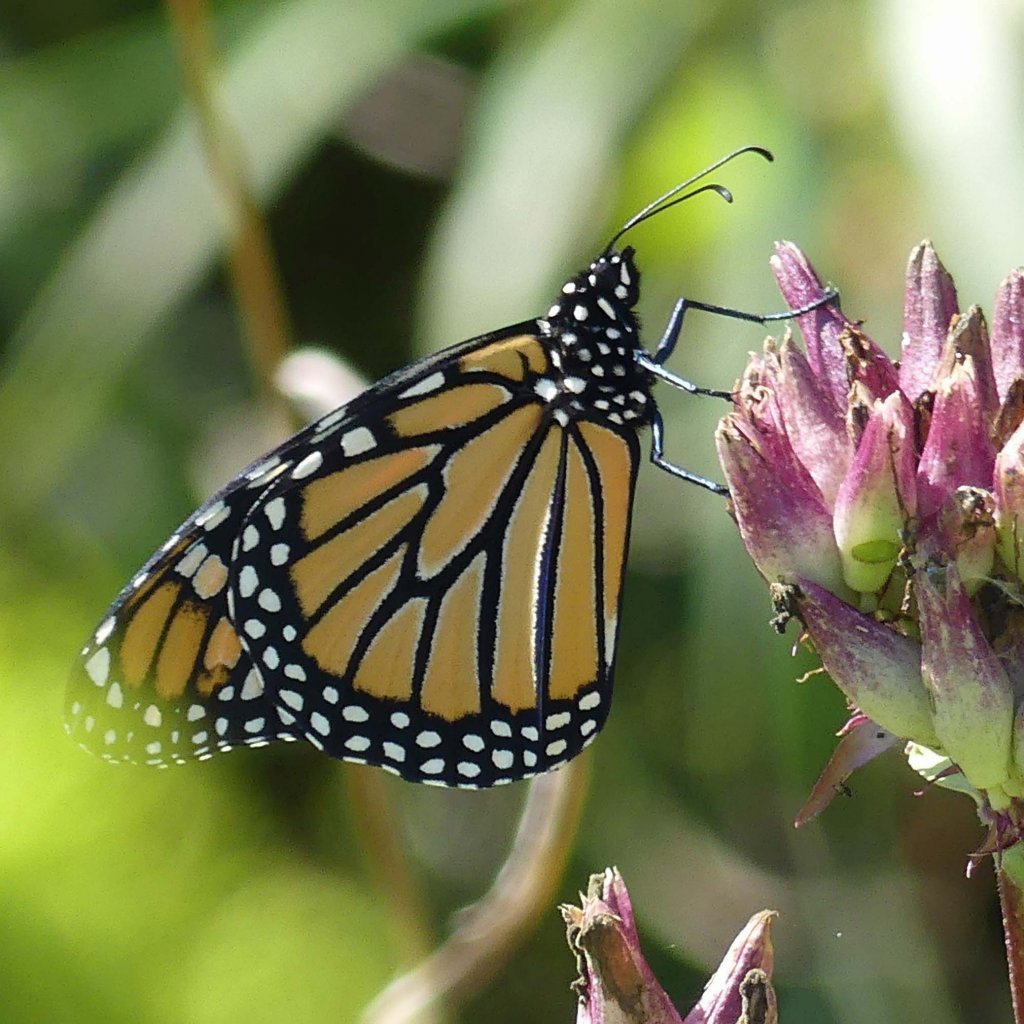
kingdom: Animalia
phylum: Arthropoda
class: Insecta
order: Lepidoptera
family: Nymphalidae
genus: Danaus
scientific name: Danaus plexippus
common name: Monarch
